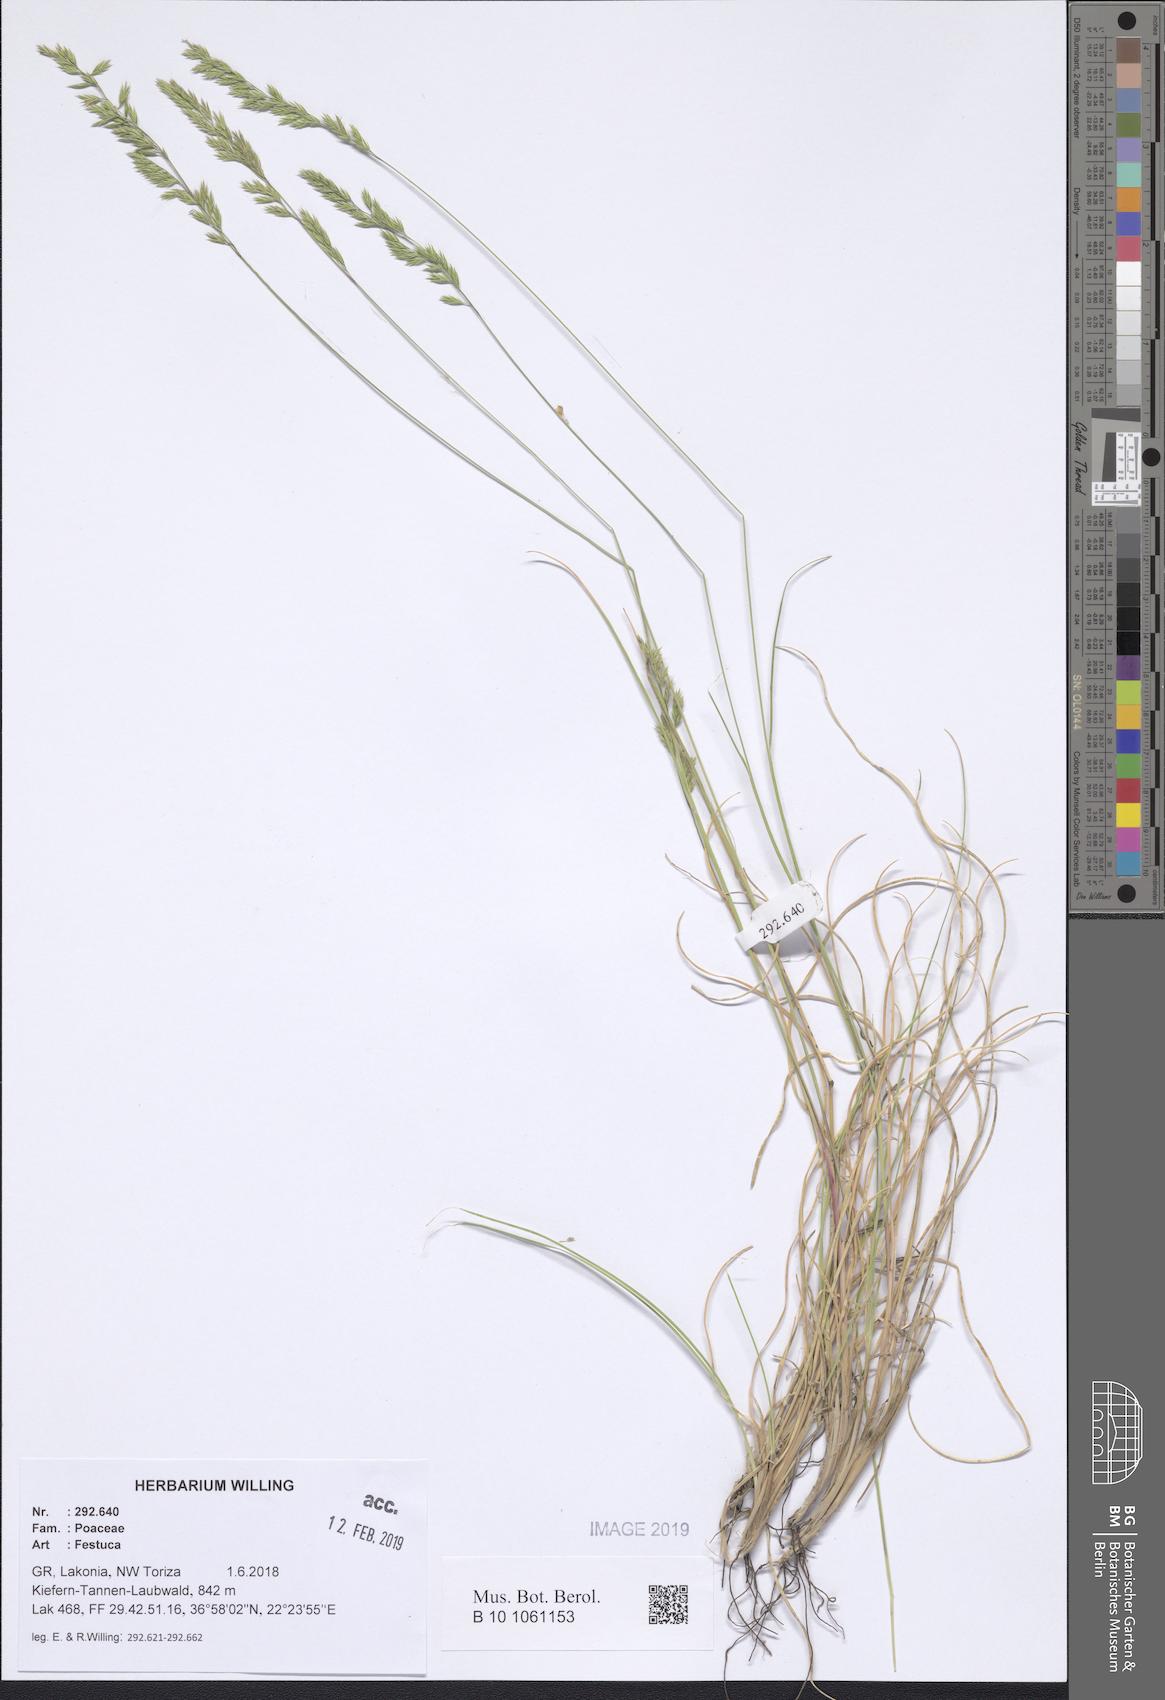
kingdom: Plantae
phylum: Tracheophyta
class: Liliopsida
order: Poales
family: Poaceae
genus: Festuca
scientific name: Festuca
